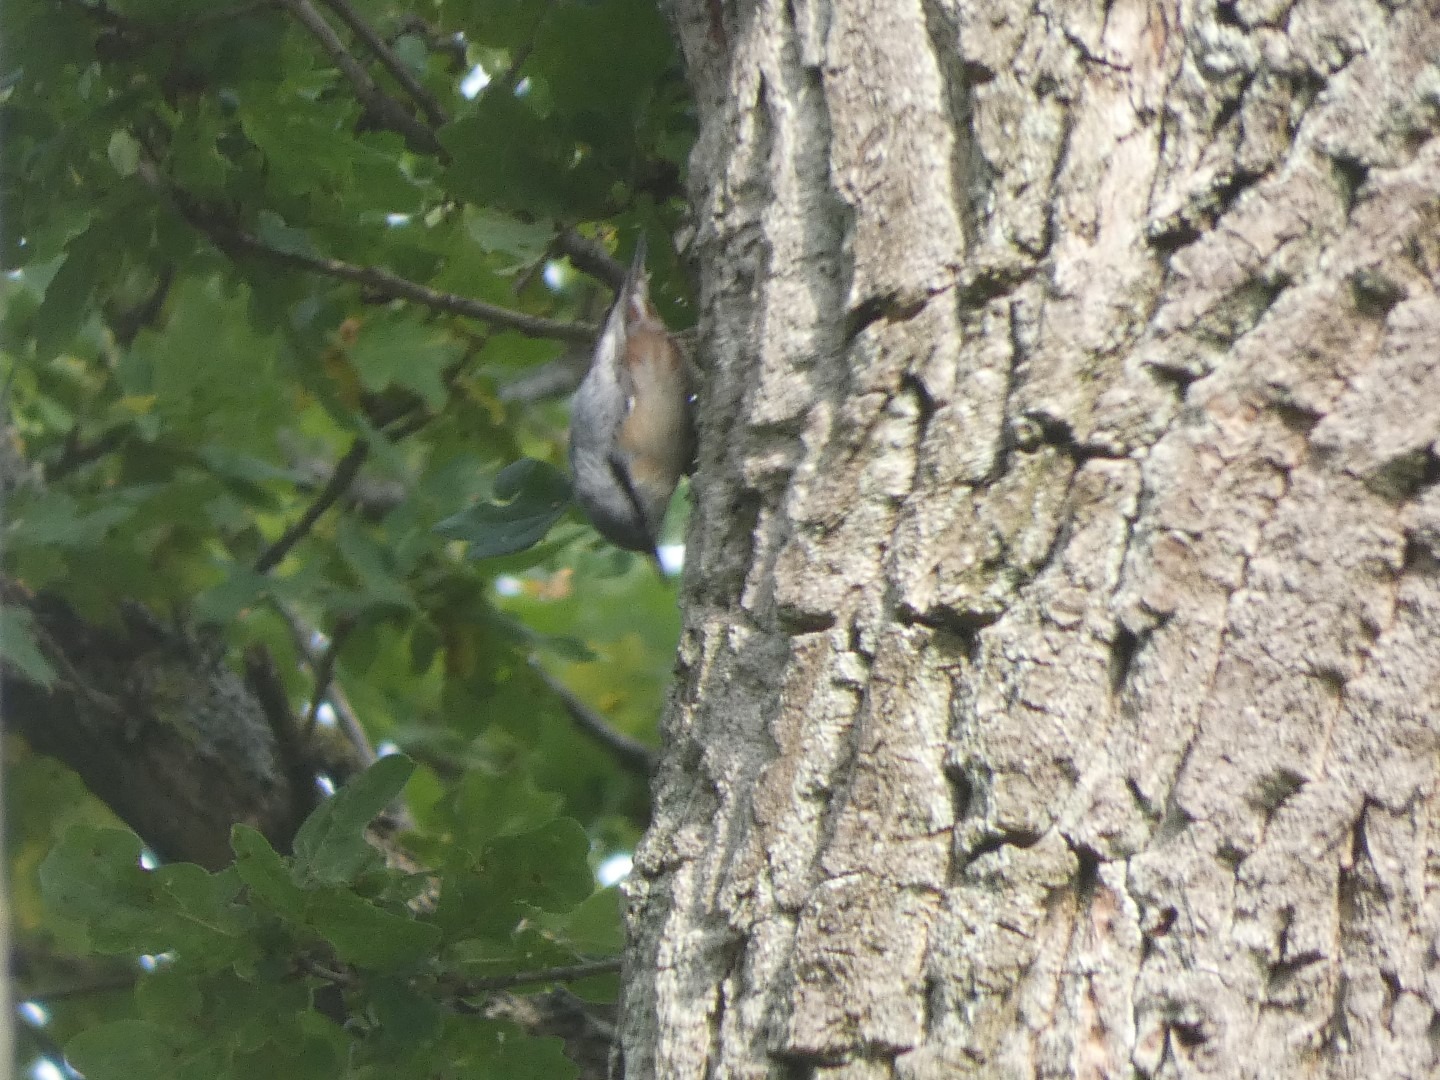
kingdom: Animalia
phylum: Chordata
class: Aves
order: Passeriformes
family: Sittidae
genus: Sitta
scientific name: Sitta europaea
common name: Spætmejse
